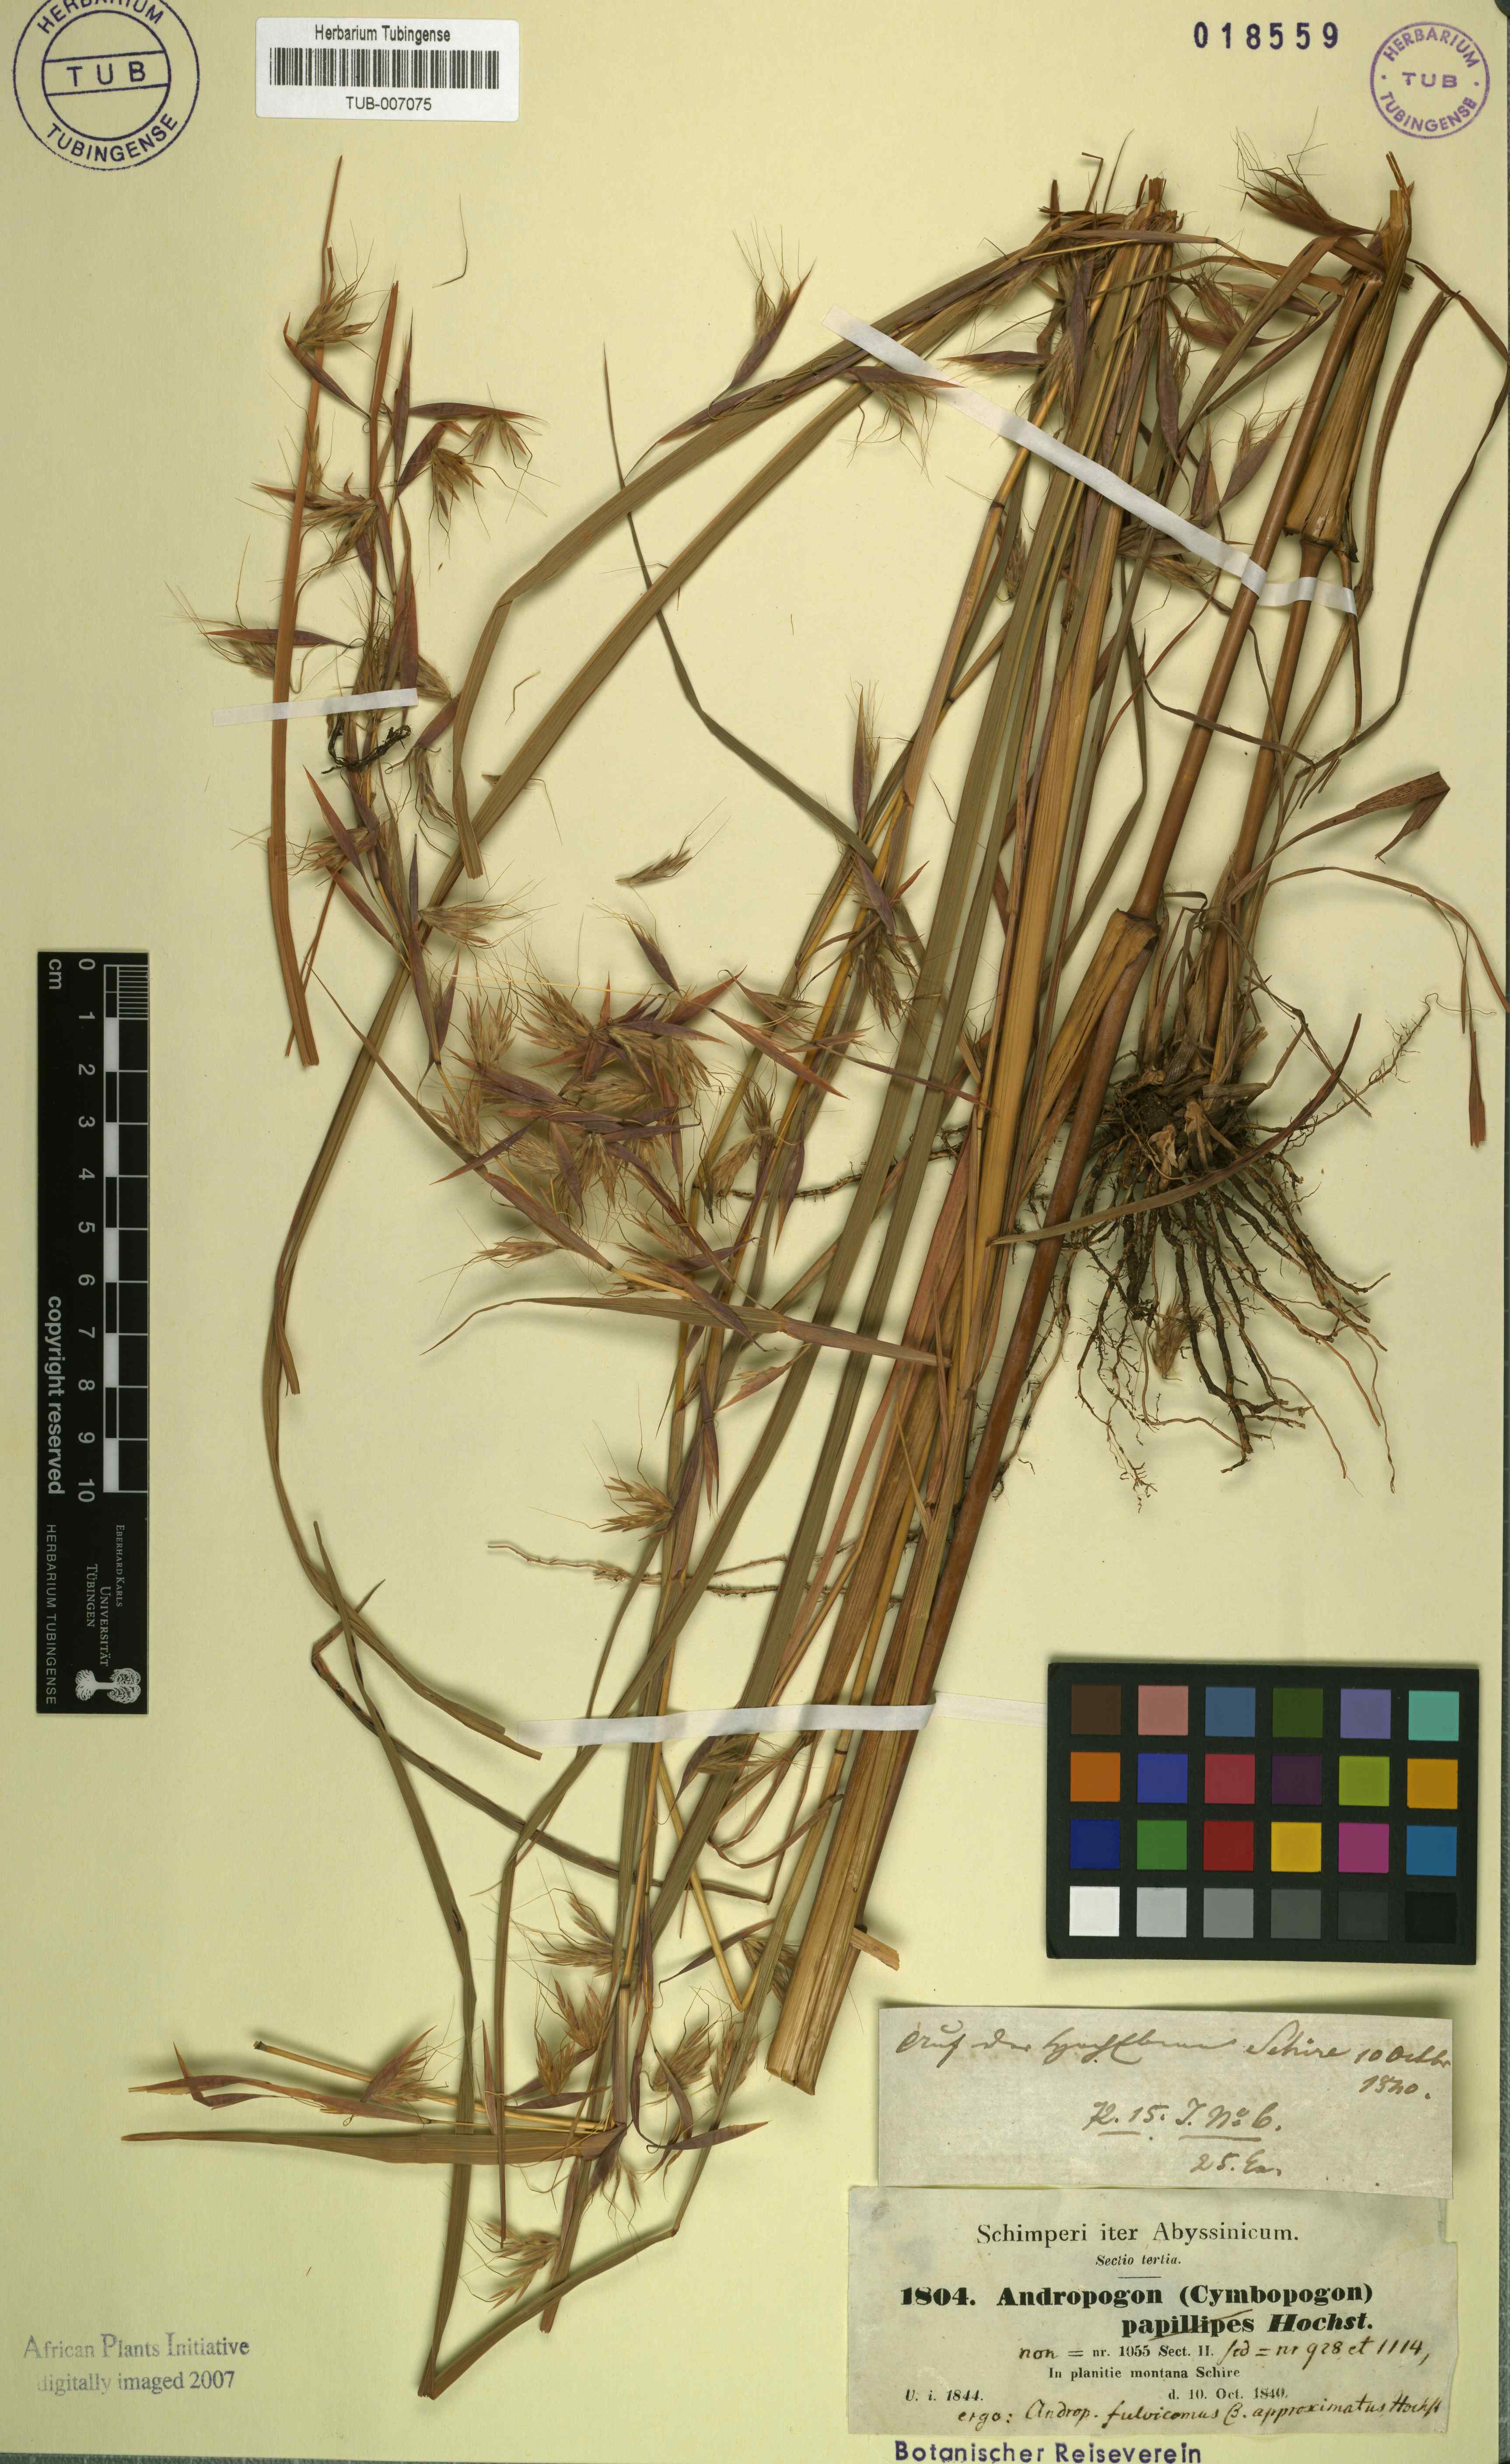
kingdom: Plantae
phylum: Tracheophyta
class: Liliopsida
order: Poales
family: Poaceae
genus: Hyparrhenia
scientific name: Hyparrhenia rufa
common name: Jaraguagrass
